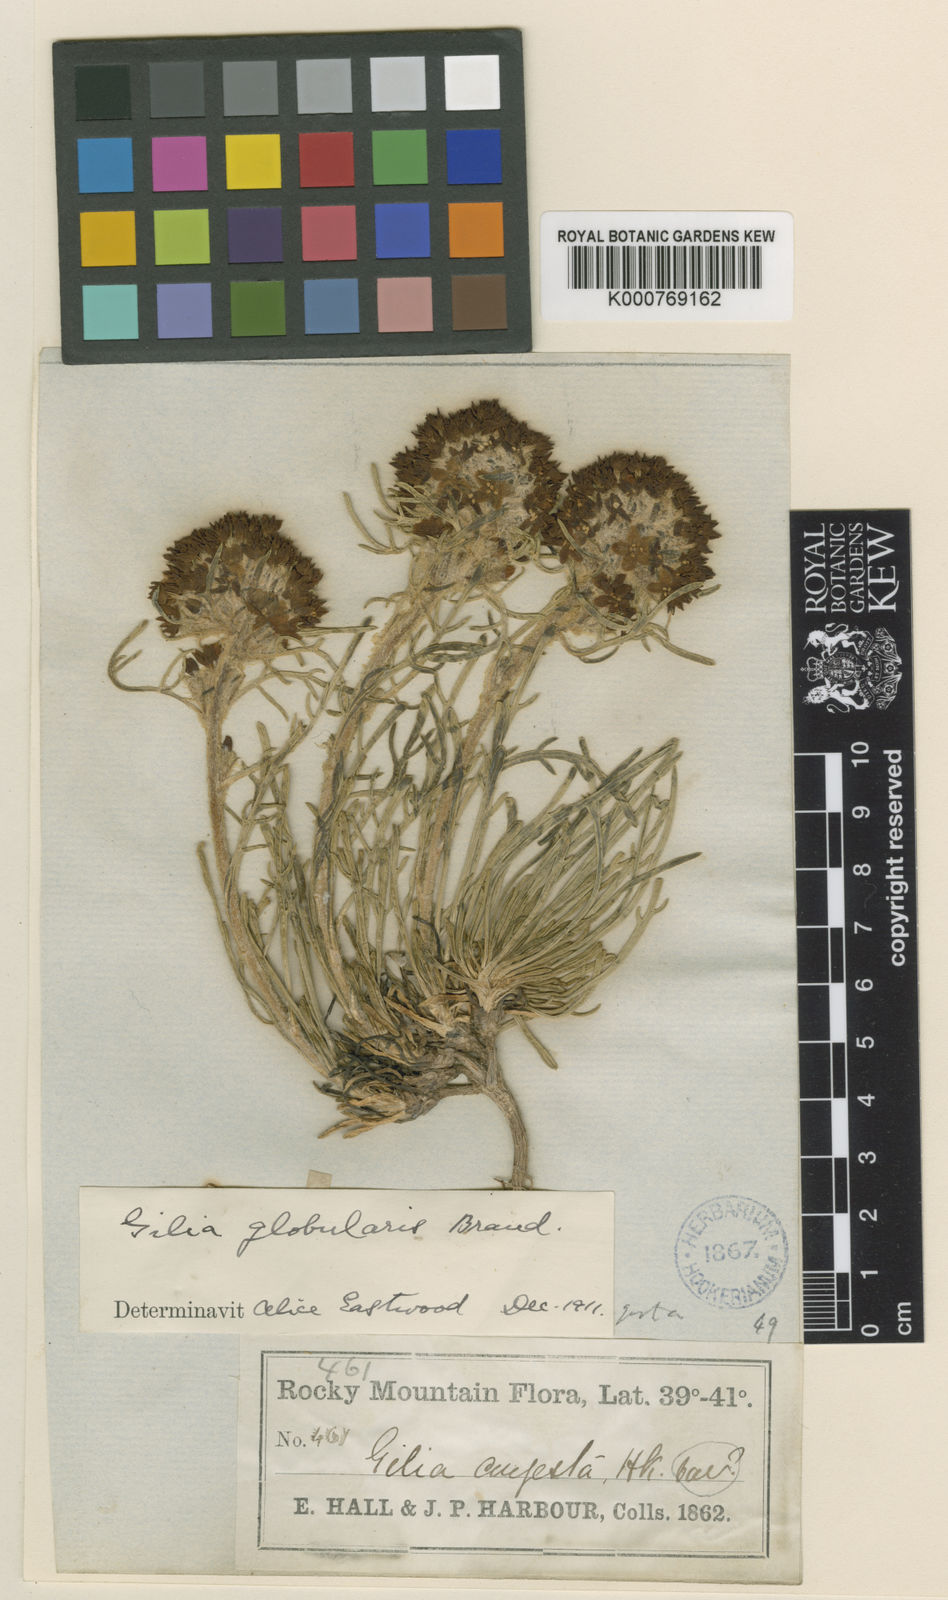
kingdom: Plantae
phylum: Tracheophyta
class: Magnoliopsida
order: Ericales
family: Polemoniaceae
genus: Ipomopsis
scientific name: Ipomopsis congesta
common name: Ball-head gilia
